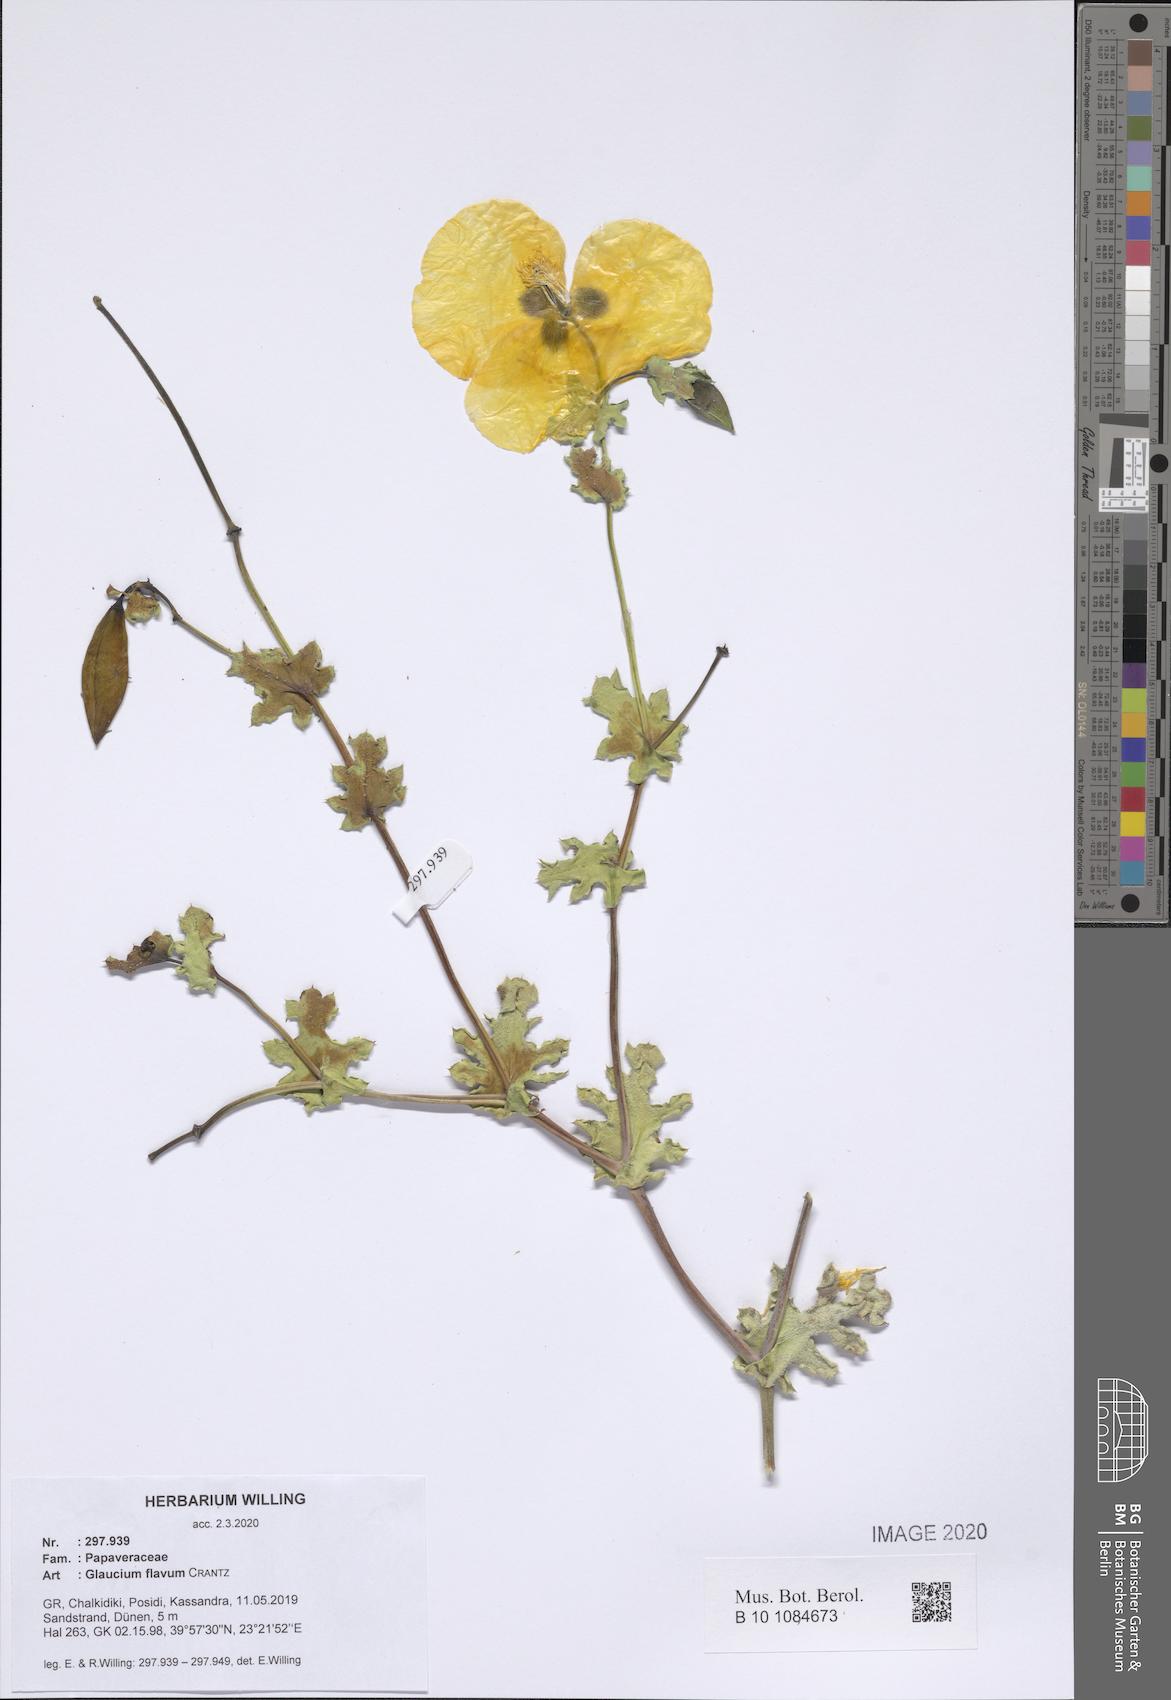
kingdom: Plantae
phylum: Tracheophyta
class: Magnoliopsida
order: Ranunculales
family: Papaveraceae
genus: Glaucium
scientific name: Glaucium flavum
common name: Yellow horned-poppy
